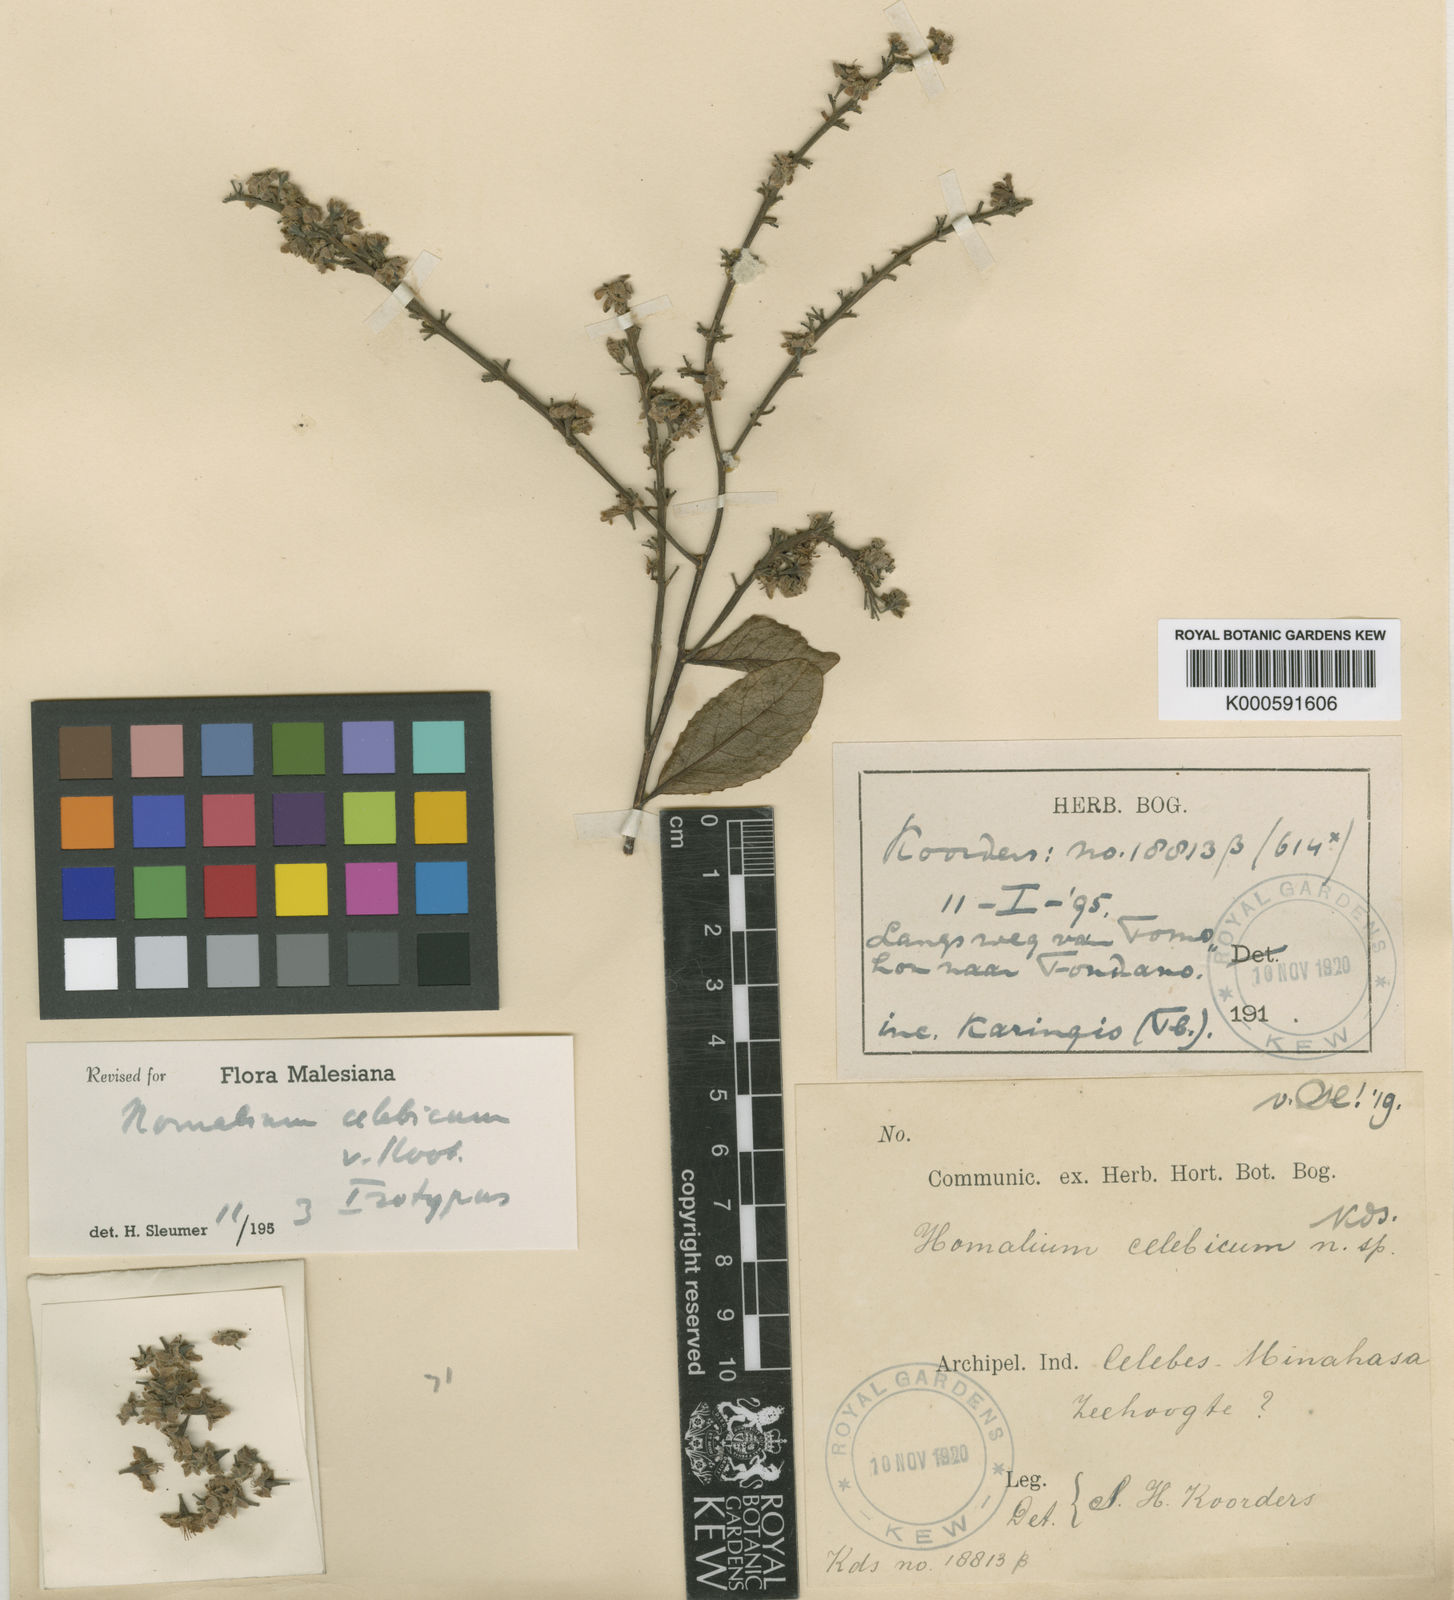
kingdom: Plantae
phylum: Tracheophyta
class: Magnoliopsida
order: Malpighiales
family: Salicaceae
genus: Homalium
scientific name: Homalium celebicum
